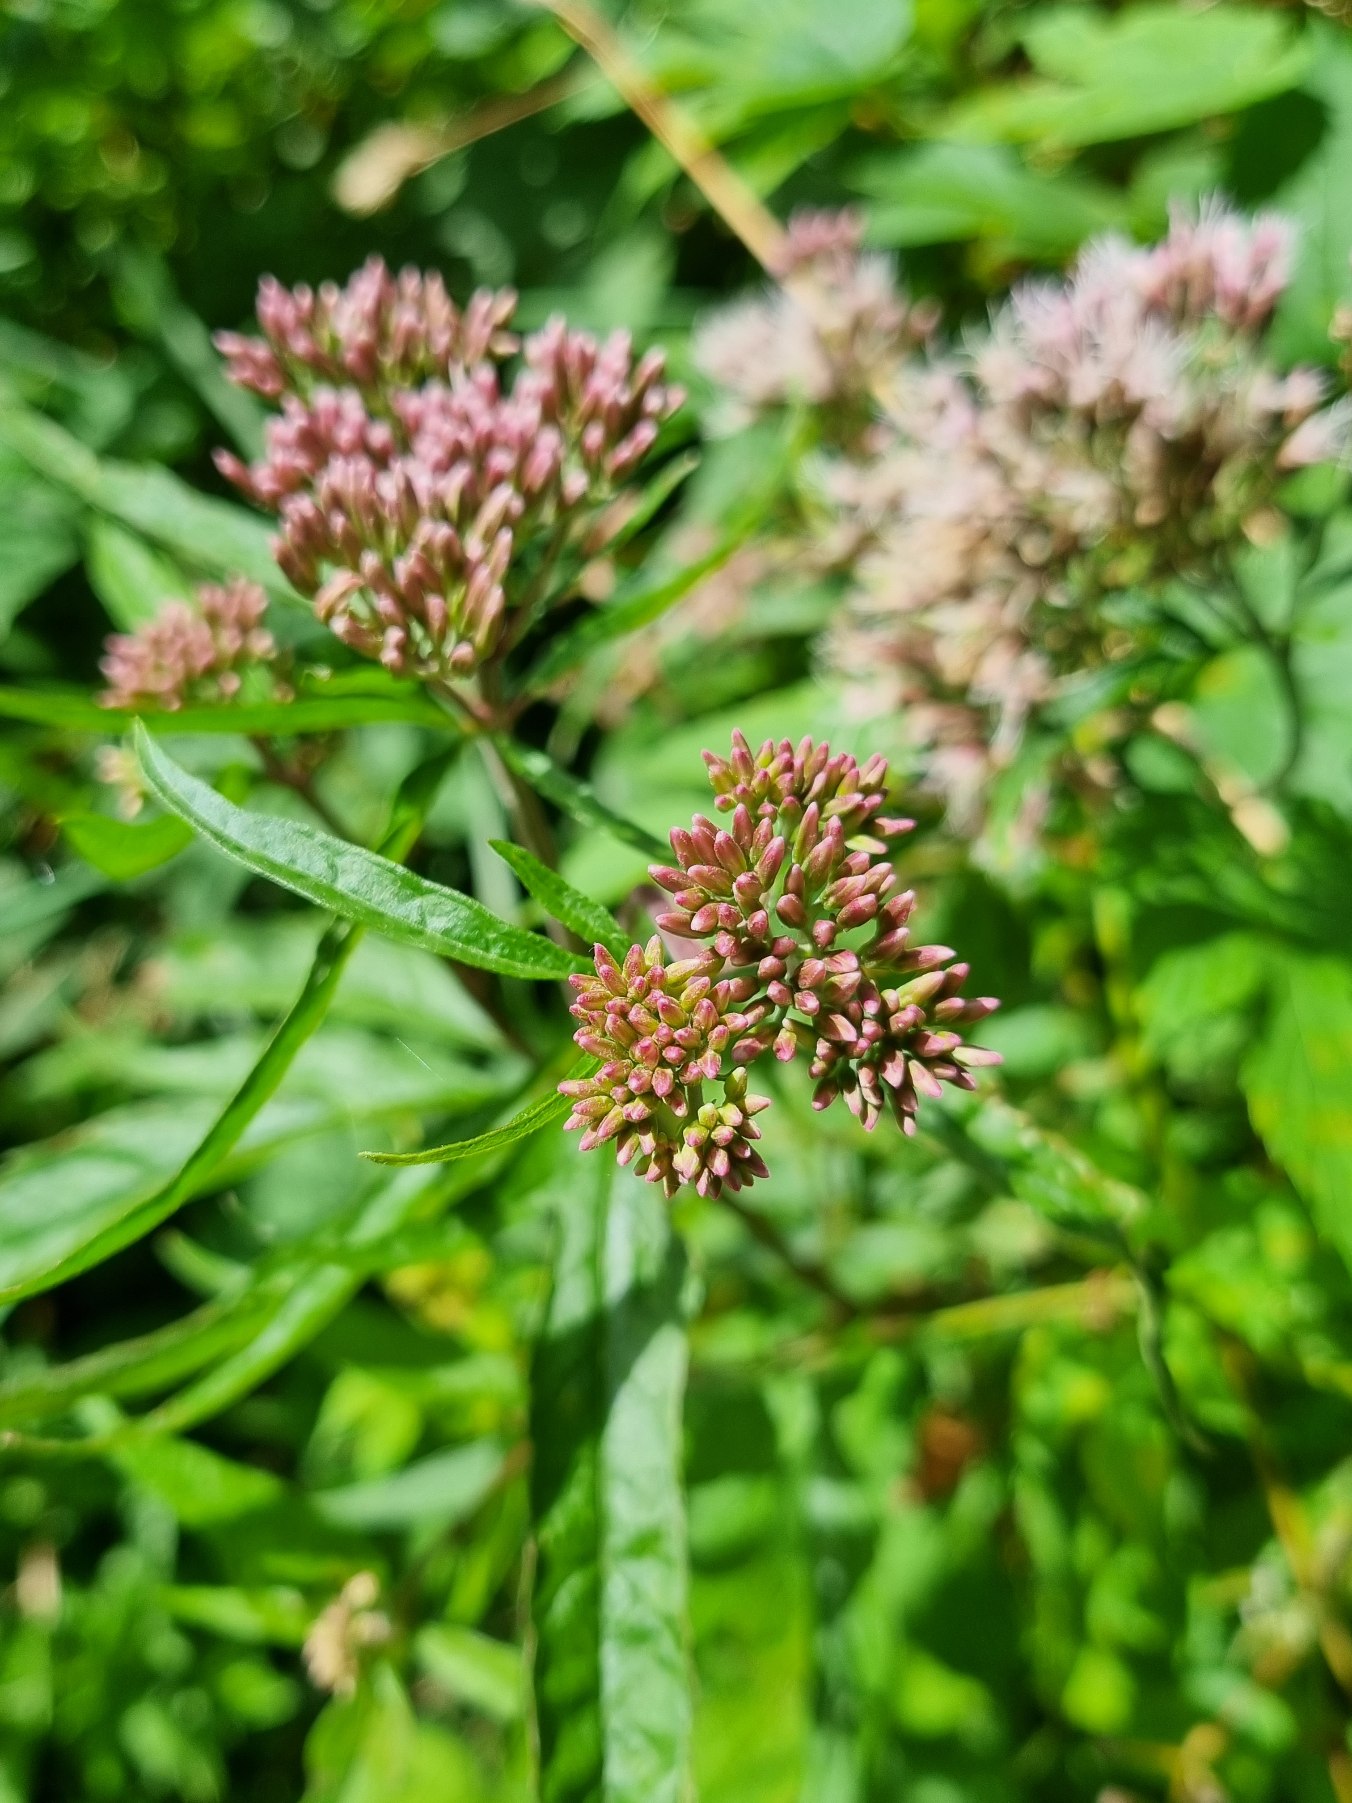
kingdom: Plantae
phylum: Tracheophyta
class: Magnoliopsida
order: Asterales
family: Asteraceae
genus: Eupatorium
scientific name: Eupatorium cannabinum
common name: Hjortetrøst
